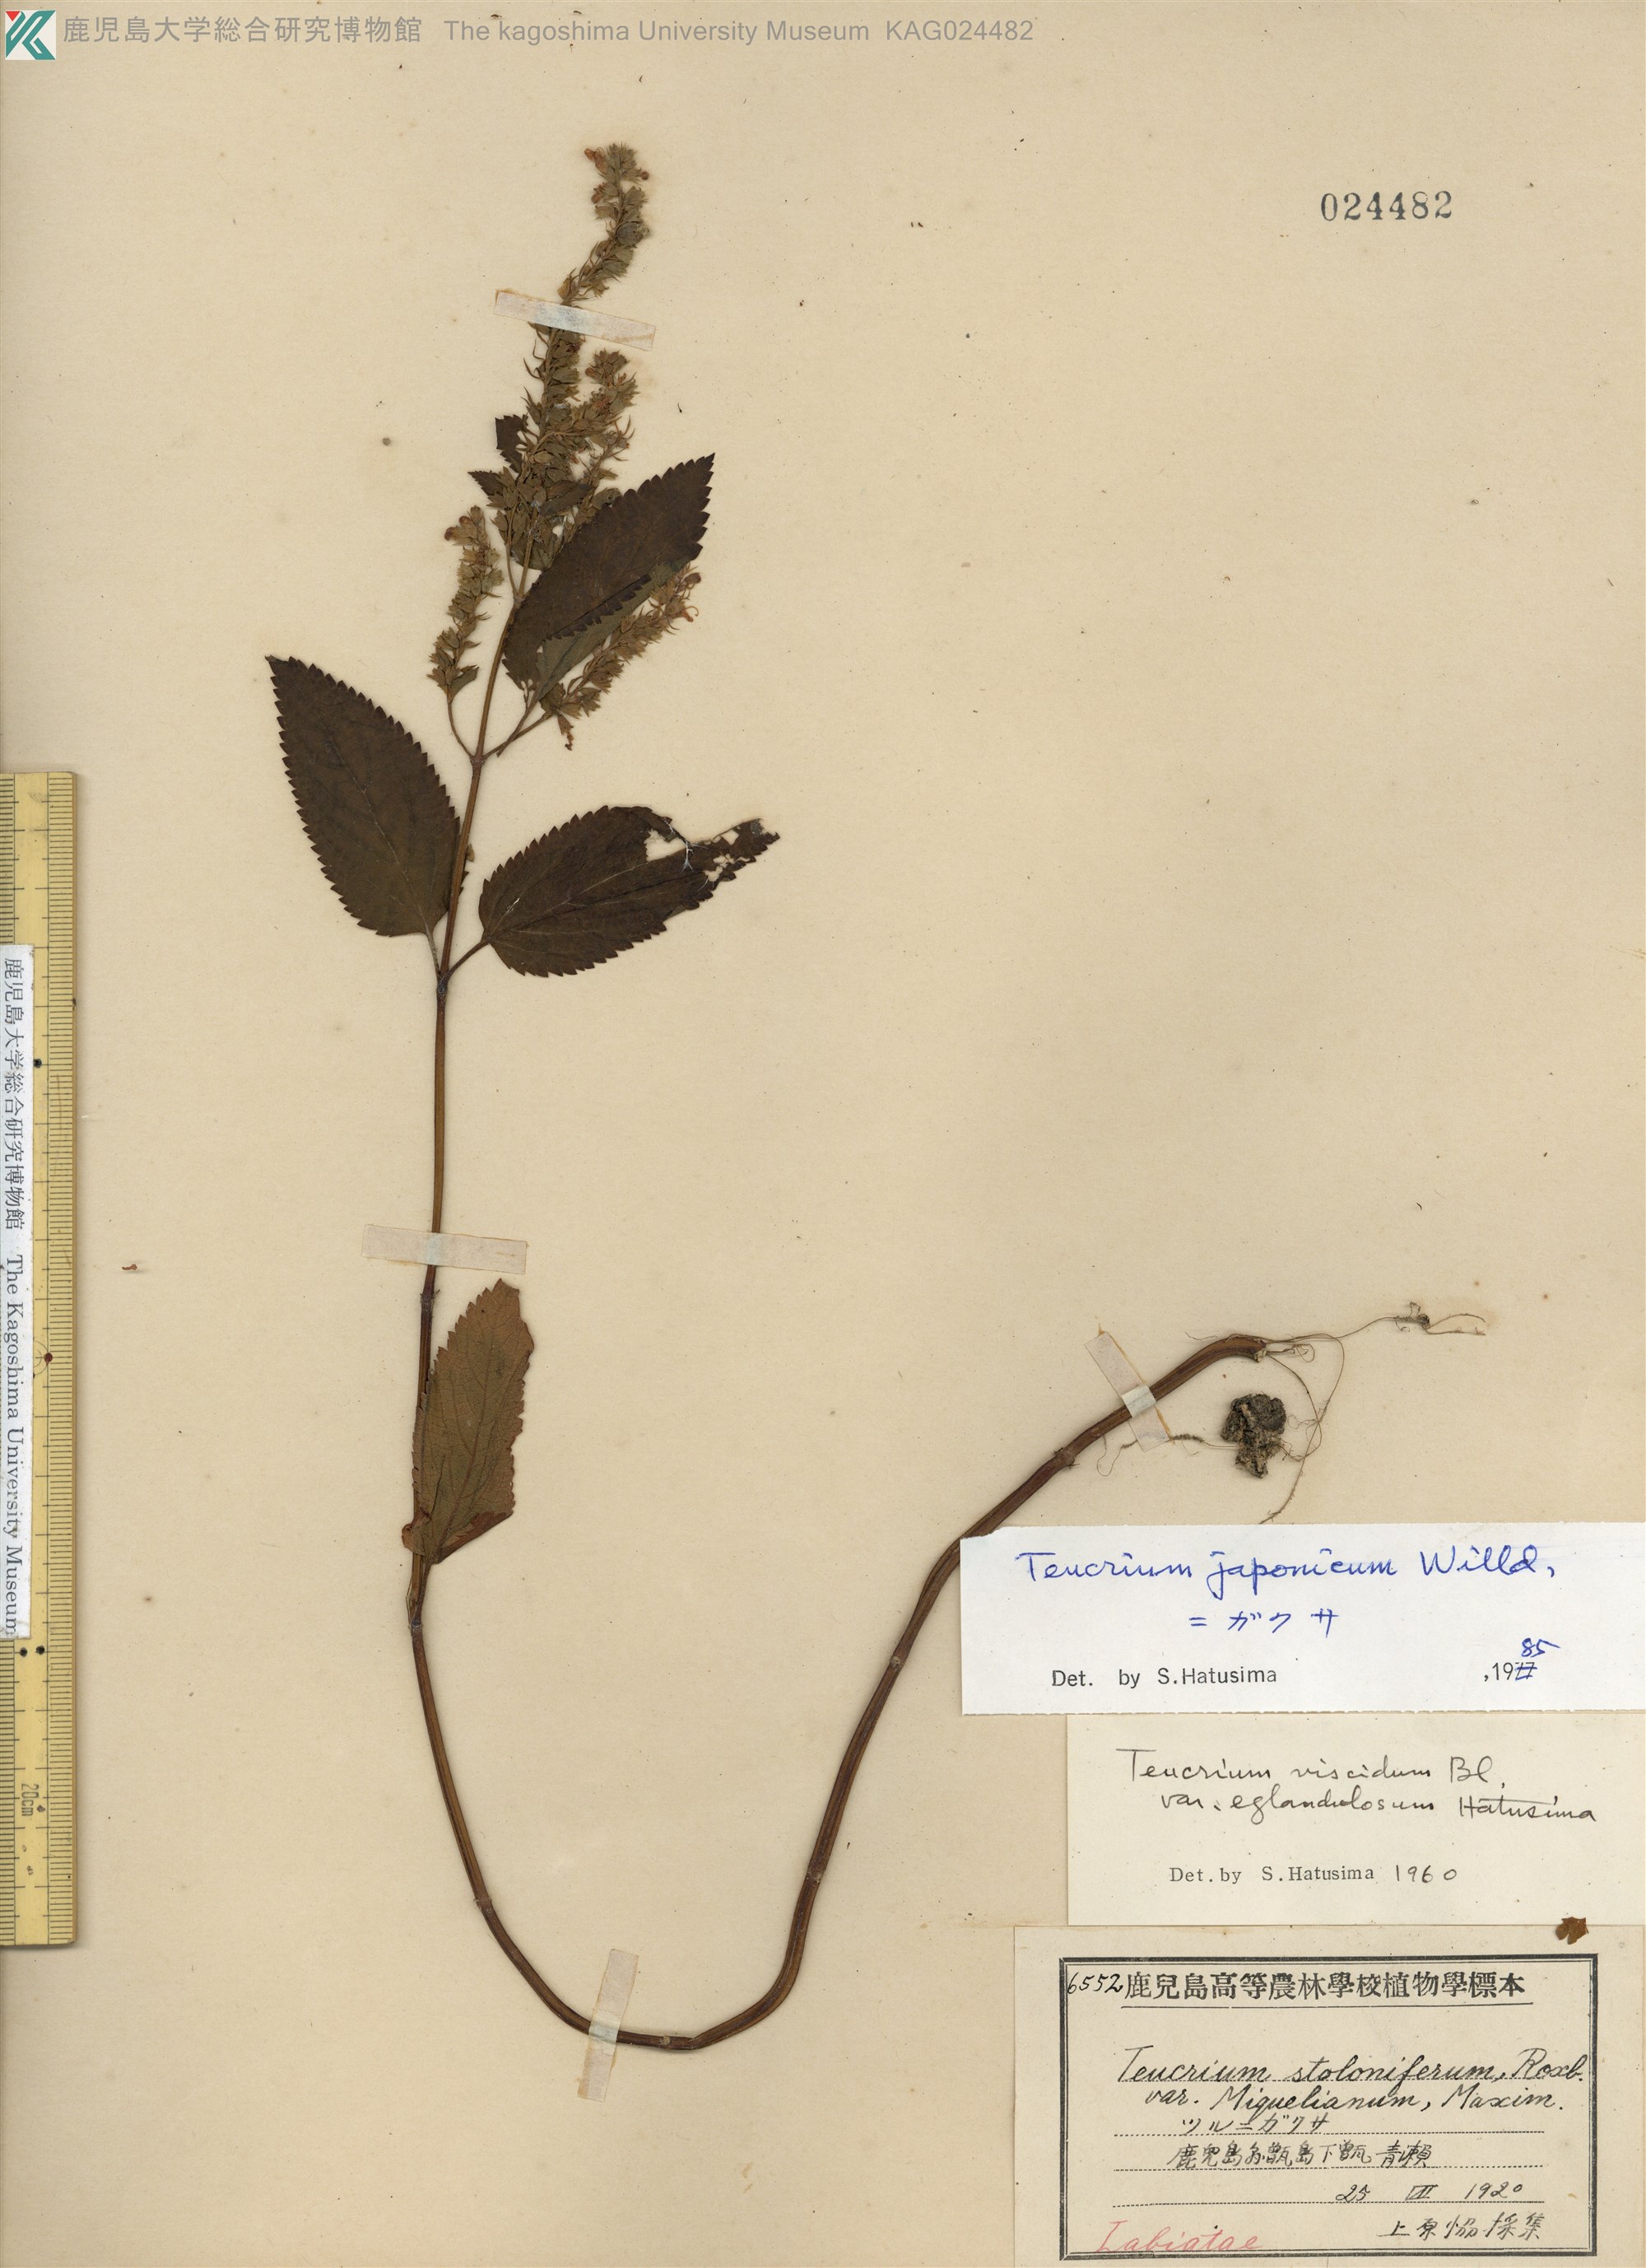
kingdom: Plantae
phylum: Tracheophyta
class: Magnoliopsida
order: Lamiales
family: Lamiaceae
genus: Teucrium
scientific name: Teucrium japonicum
